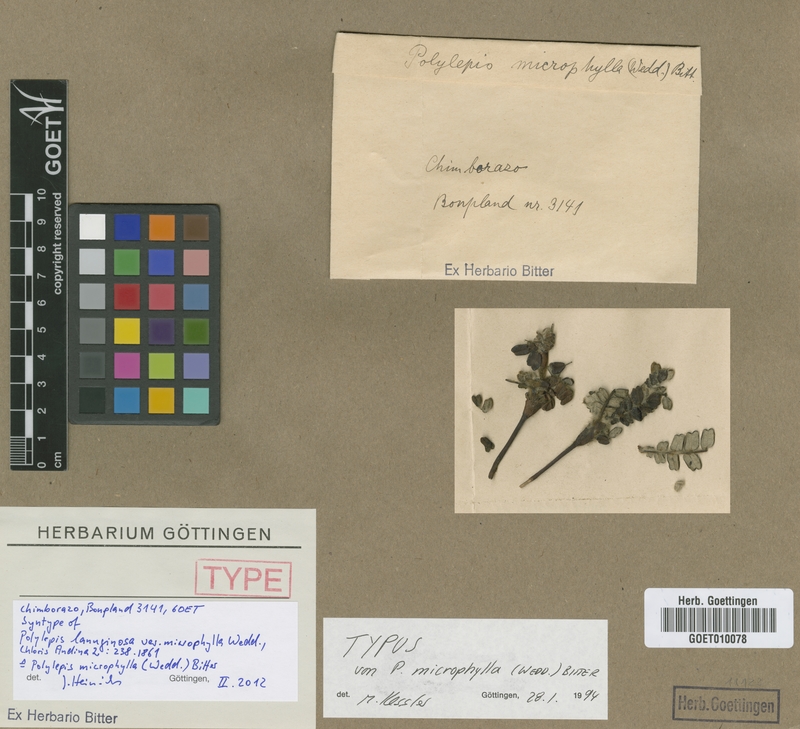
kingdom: Plantae
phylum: Tracheophyta
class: Magnoliopsida
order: Rosales
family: Rosaceae
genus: Polylepis
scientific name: Polylepis microphylla
